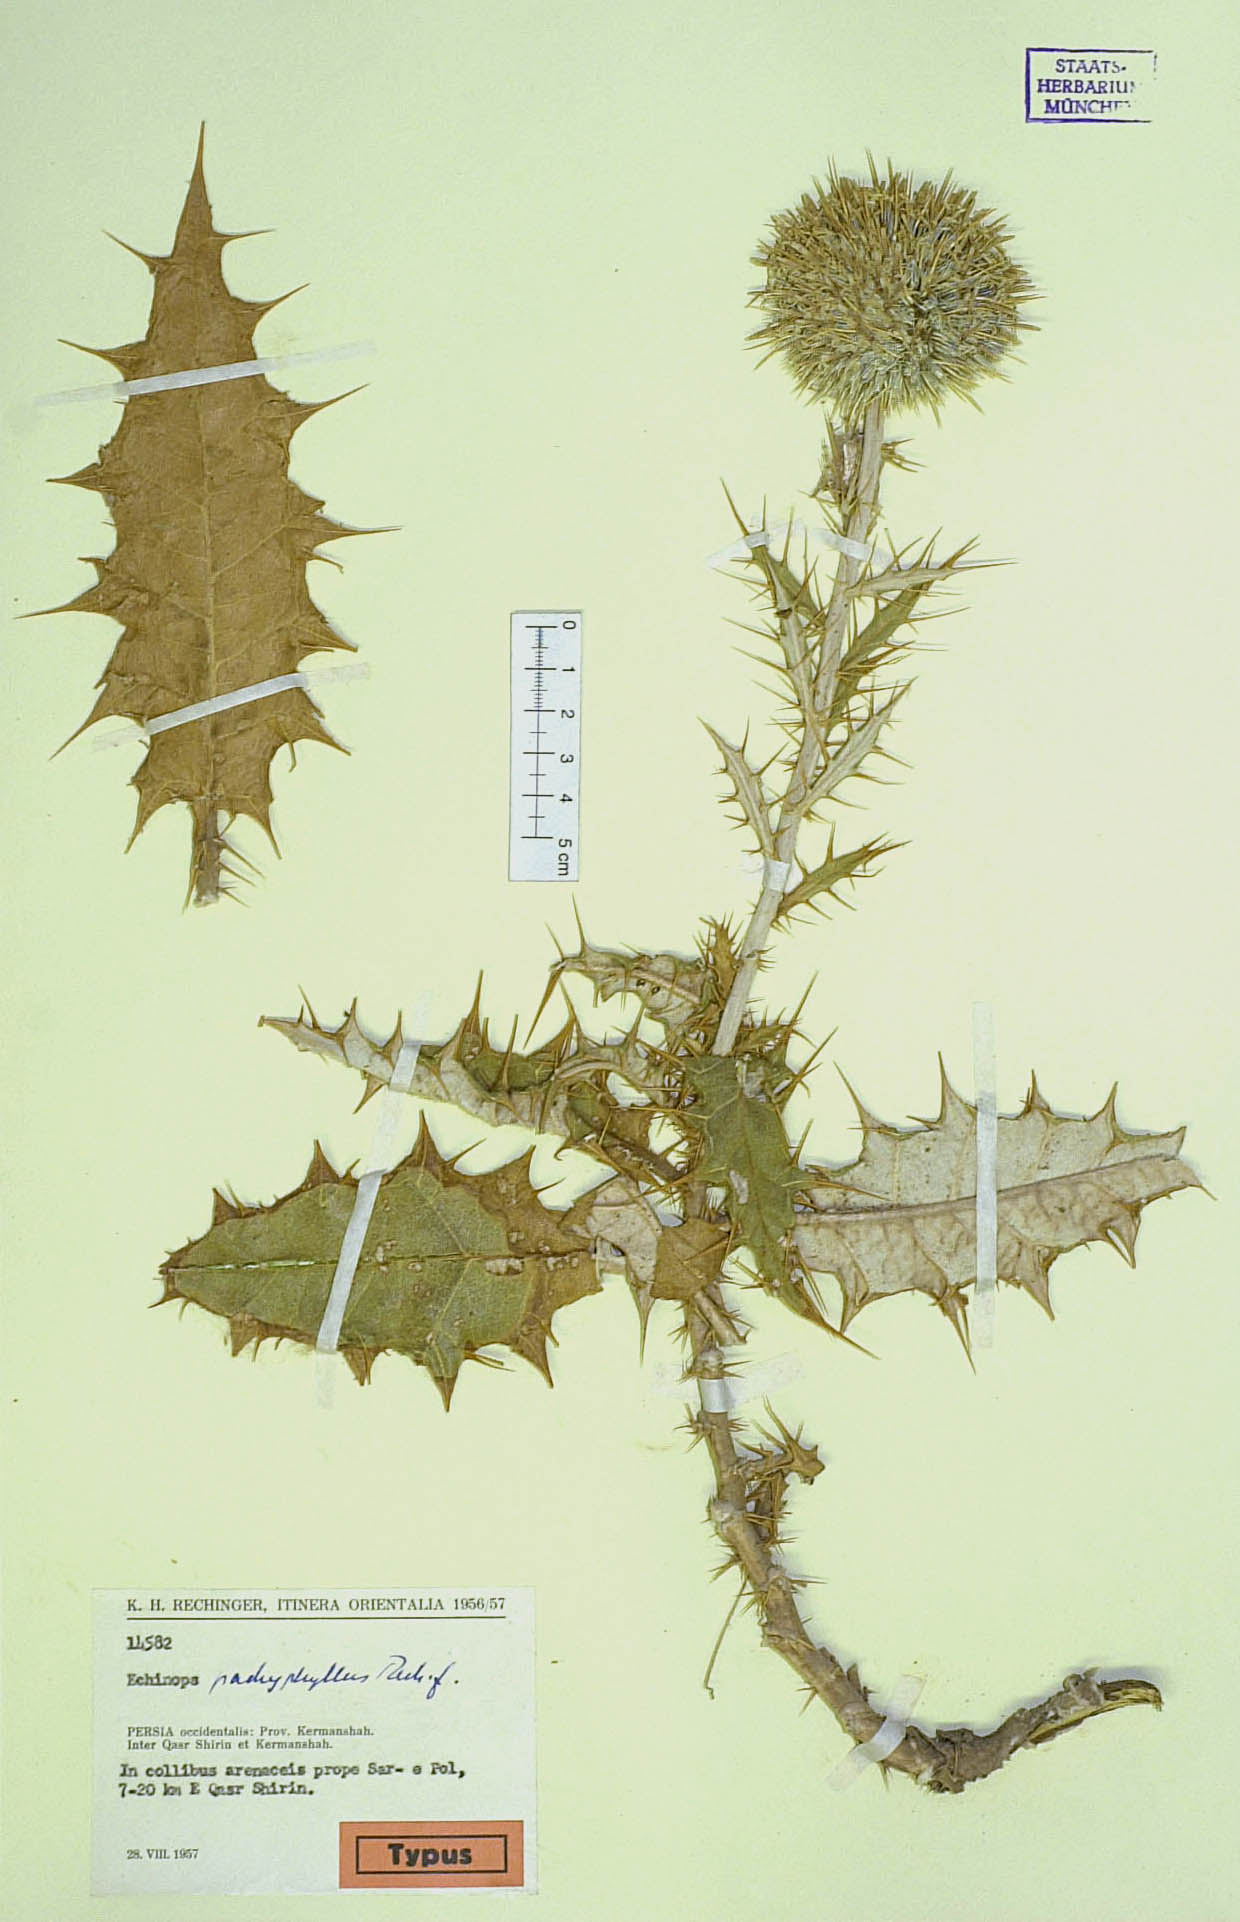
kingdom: Plantae
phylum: Tracheophyta
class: Magnoliopsida
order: Asterales
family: Asteraceae
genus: Echinops
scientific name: Echinops pachyphyllus
